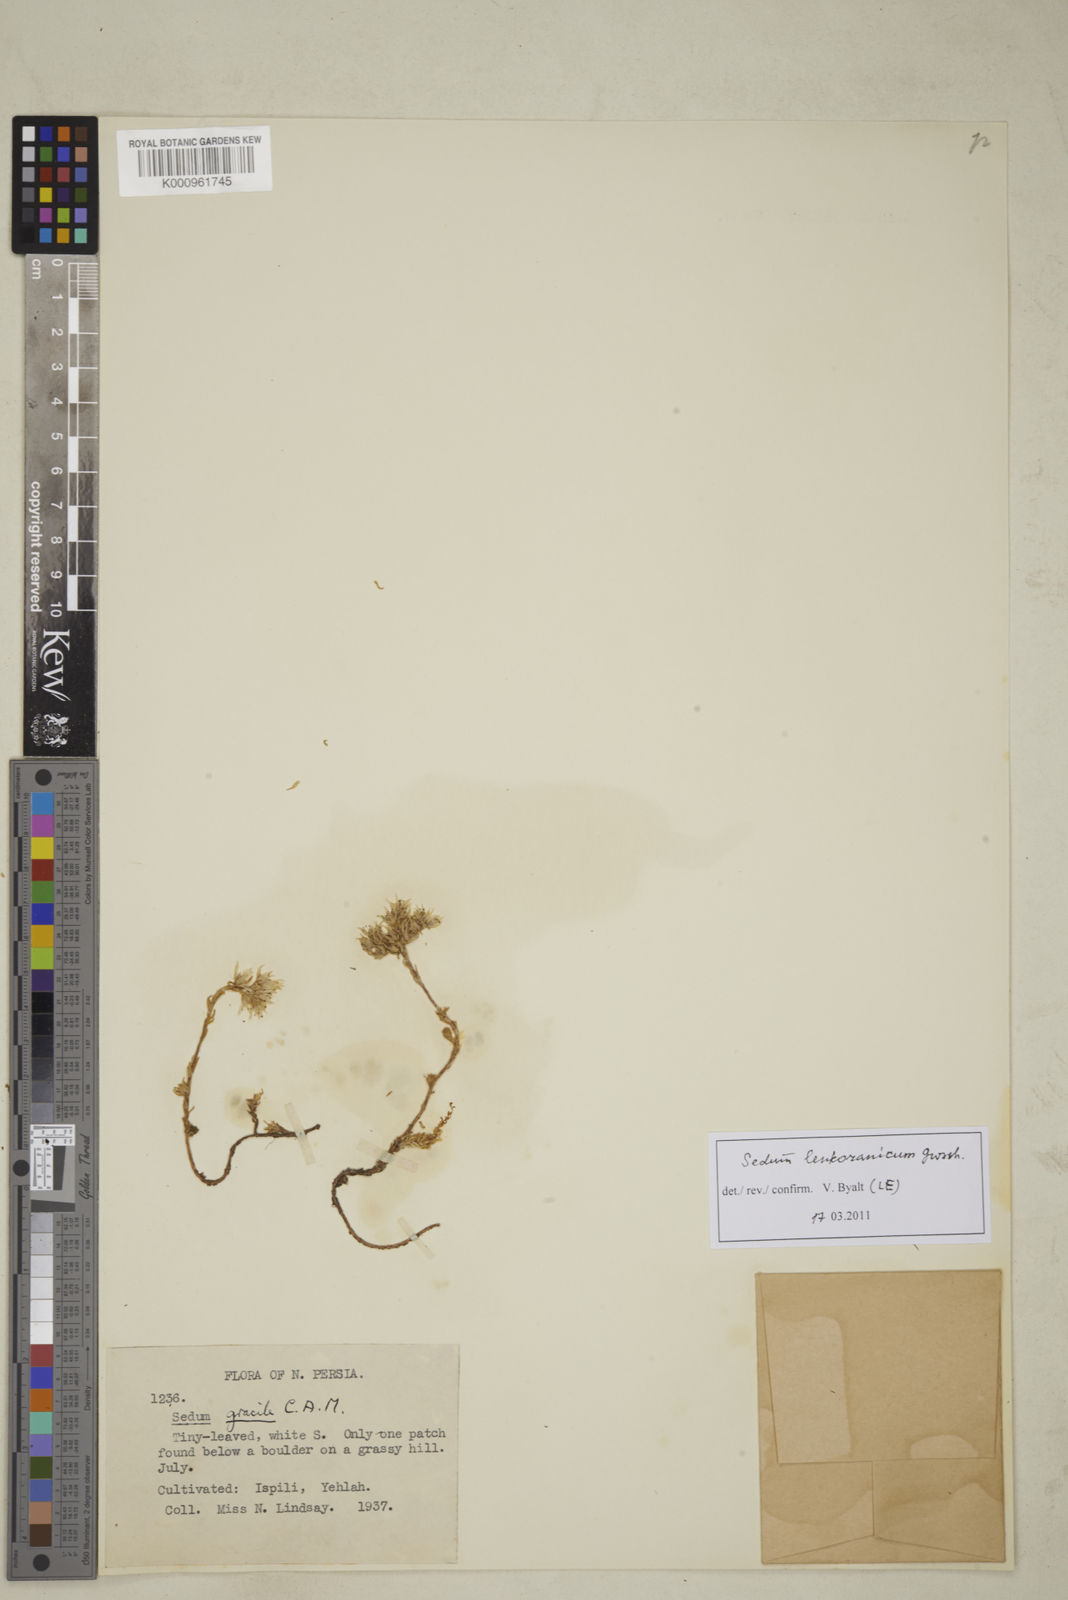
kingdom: Plantae
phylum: Tracheophyta
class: Magnoliopsida
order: Saxifragales
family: Crassulaceae
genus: Sedum
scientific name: Sedum gracile
